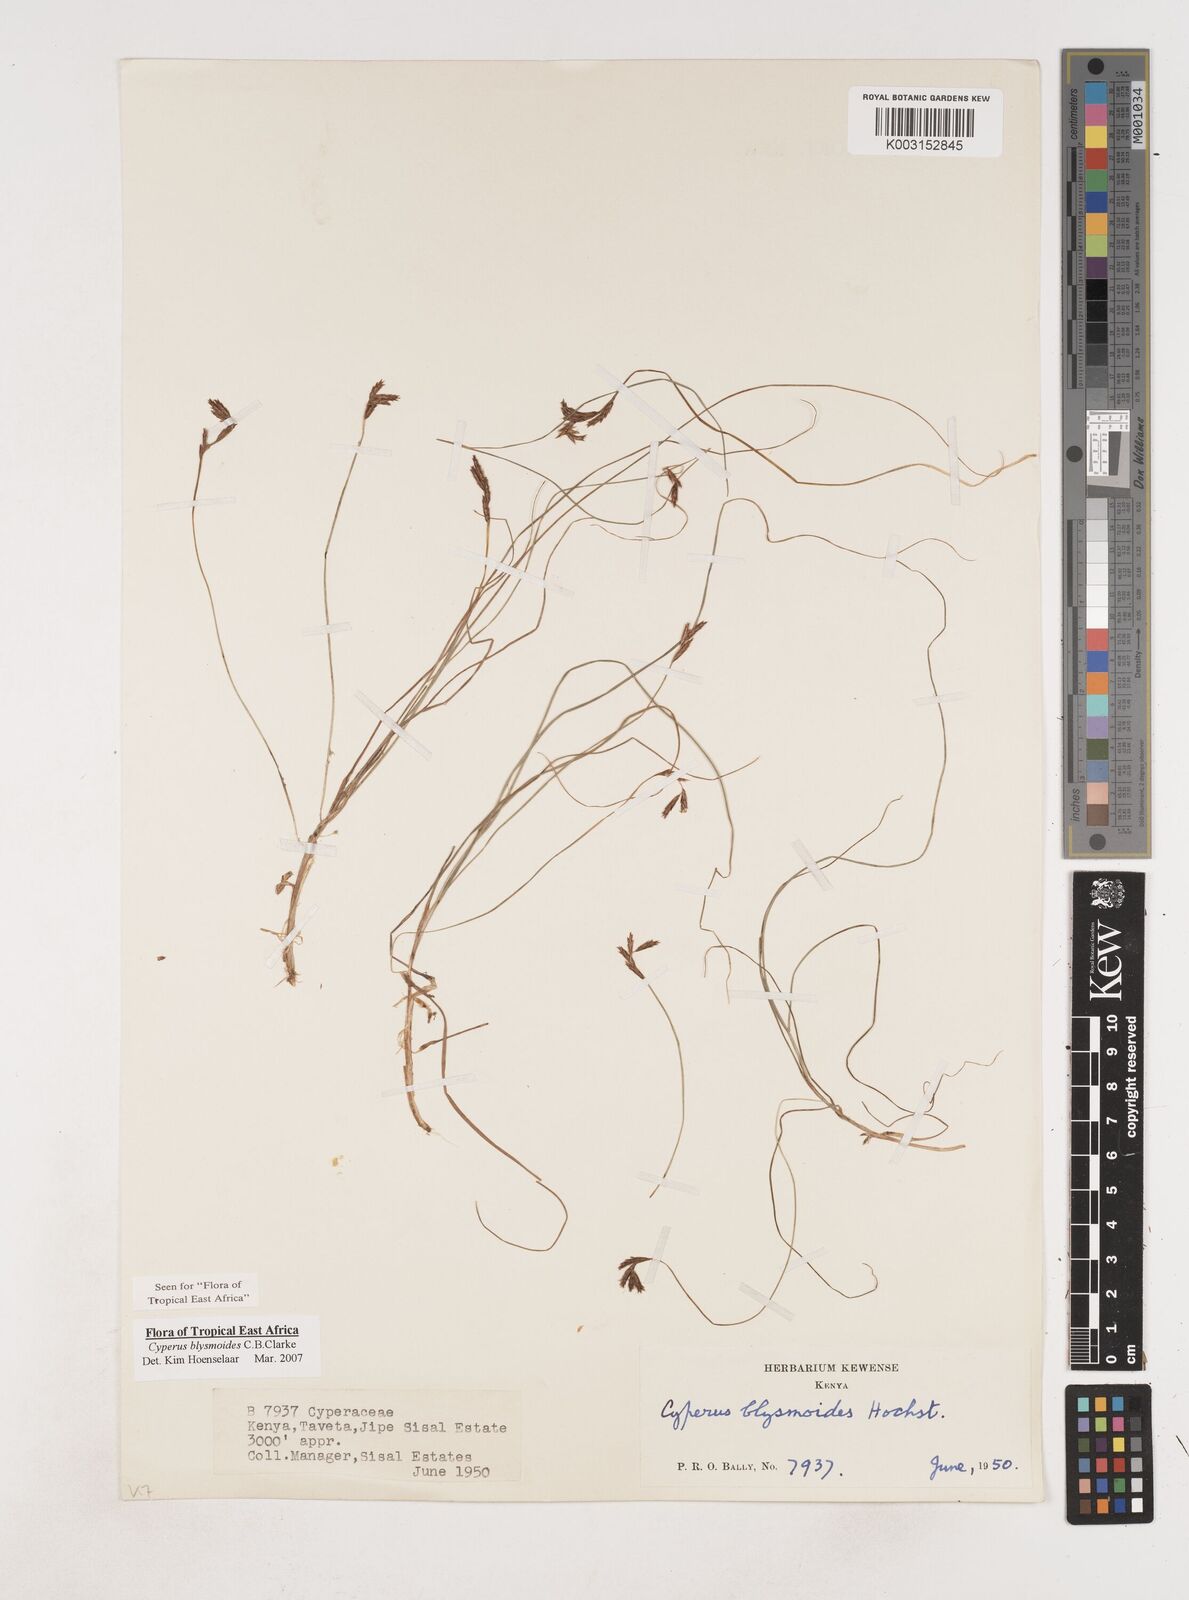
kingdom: Plantae
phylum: Tracheophyta
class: Liliopsida
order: Poales
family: Cyperaceae
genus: Cyperus
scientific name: Cyperus blysmoides
